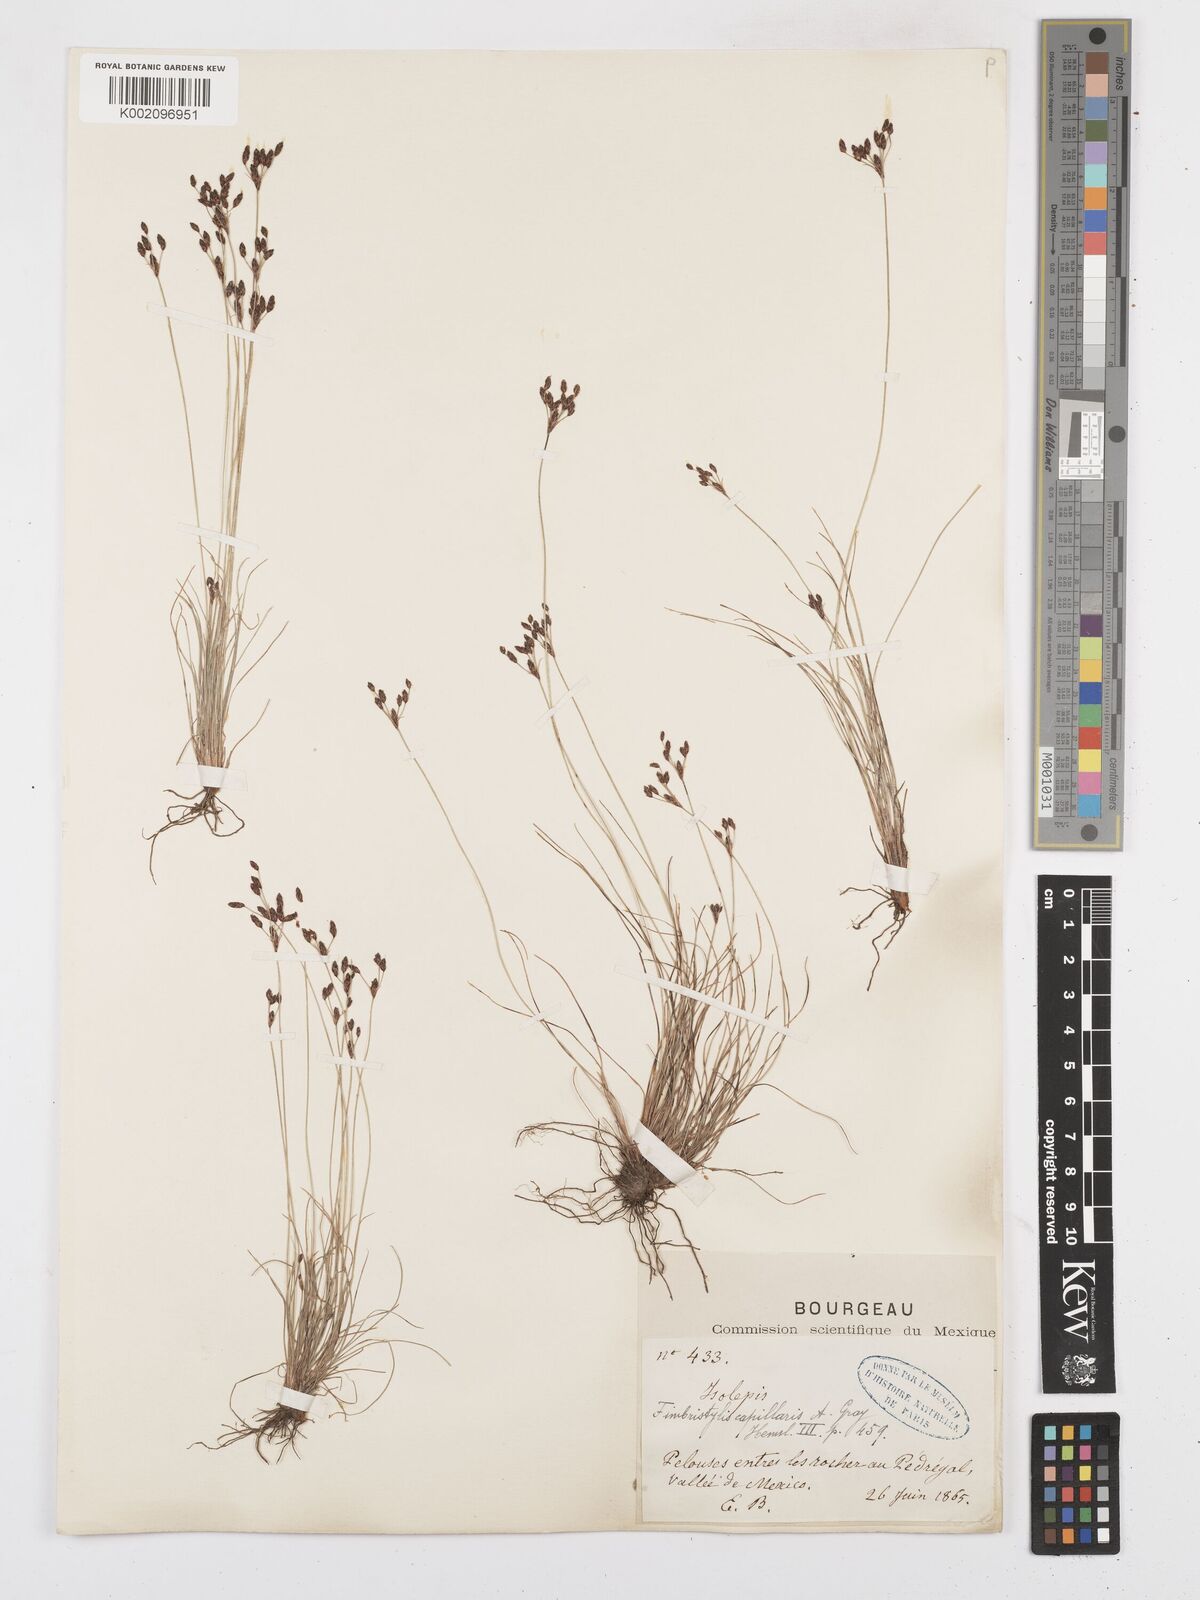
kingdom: Plantae
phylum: Tracheophyta
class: Liliopsida
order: Poales
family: Cyperaceae
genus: Bulbostylis
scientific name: Bulbostylis capillaris
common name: Densetuft hairsedge
